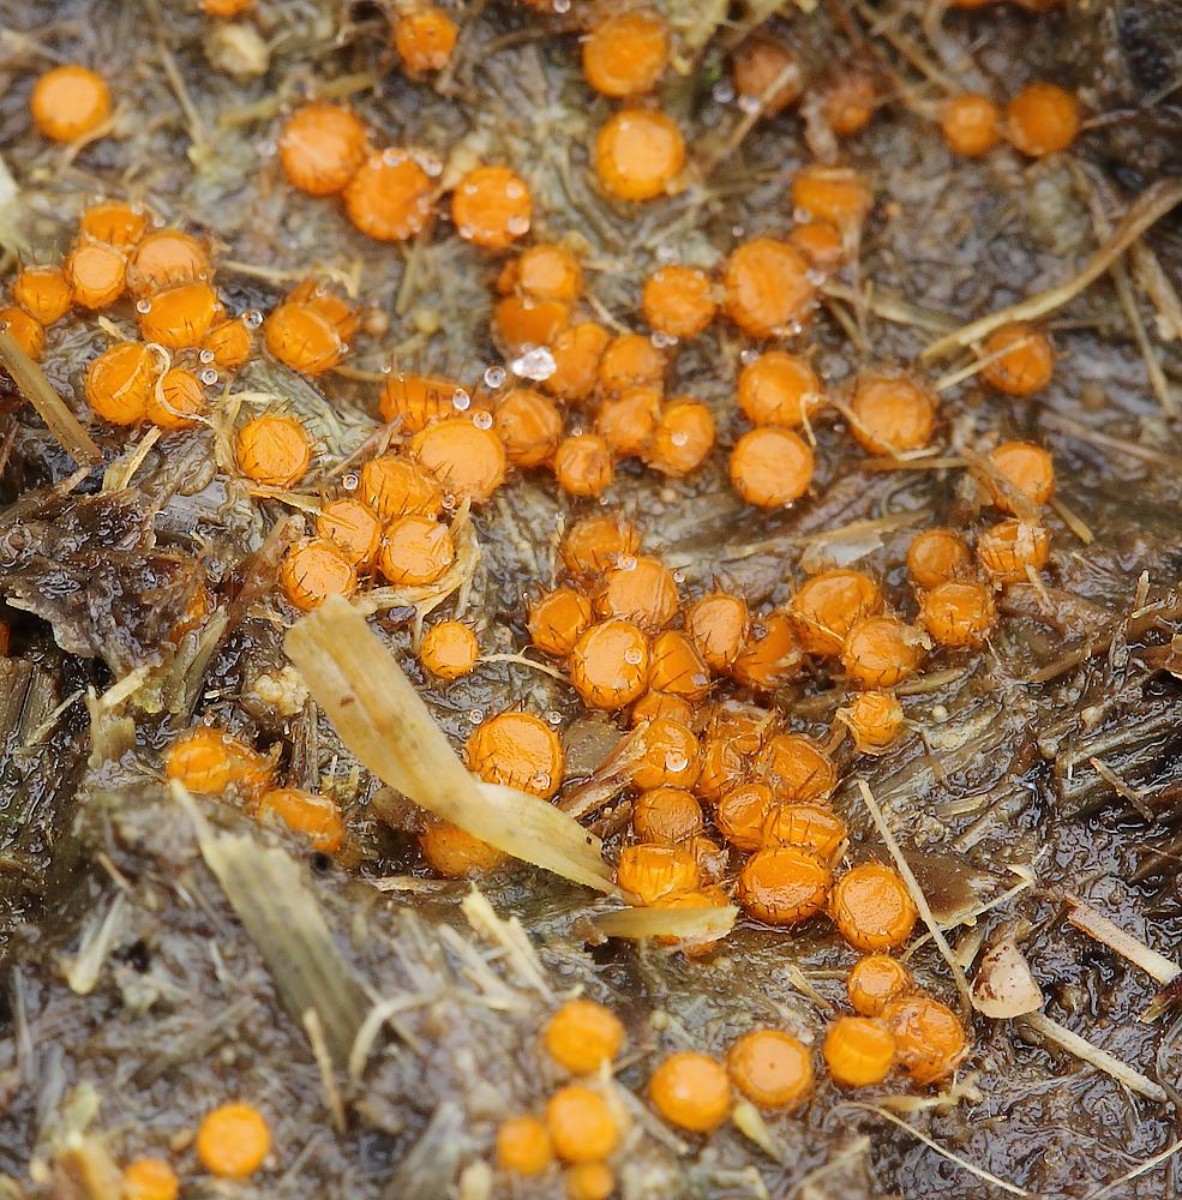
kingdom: Fungi
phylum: Ascomycota
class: Pezizomycetes
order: Pezizales
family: Pyronemataceae
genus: Cheilymenia
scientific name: Cheilymenia
